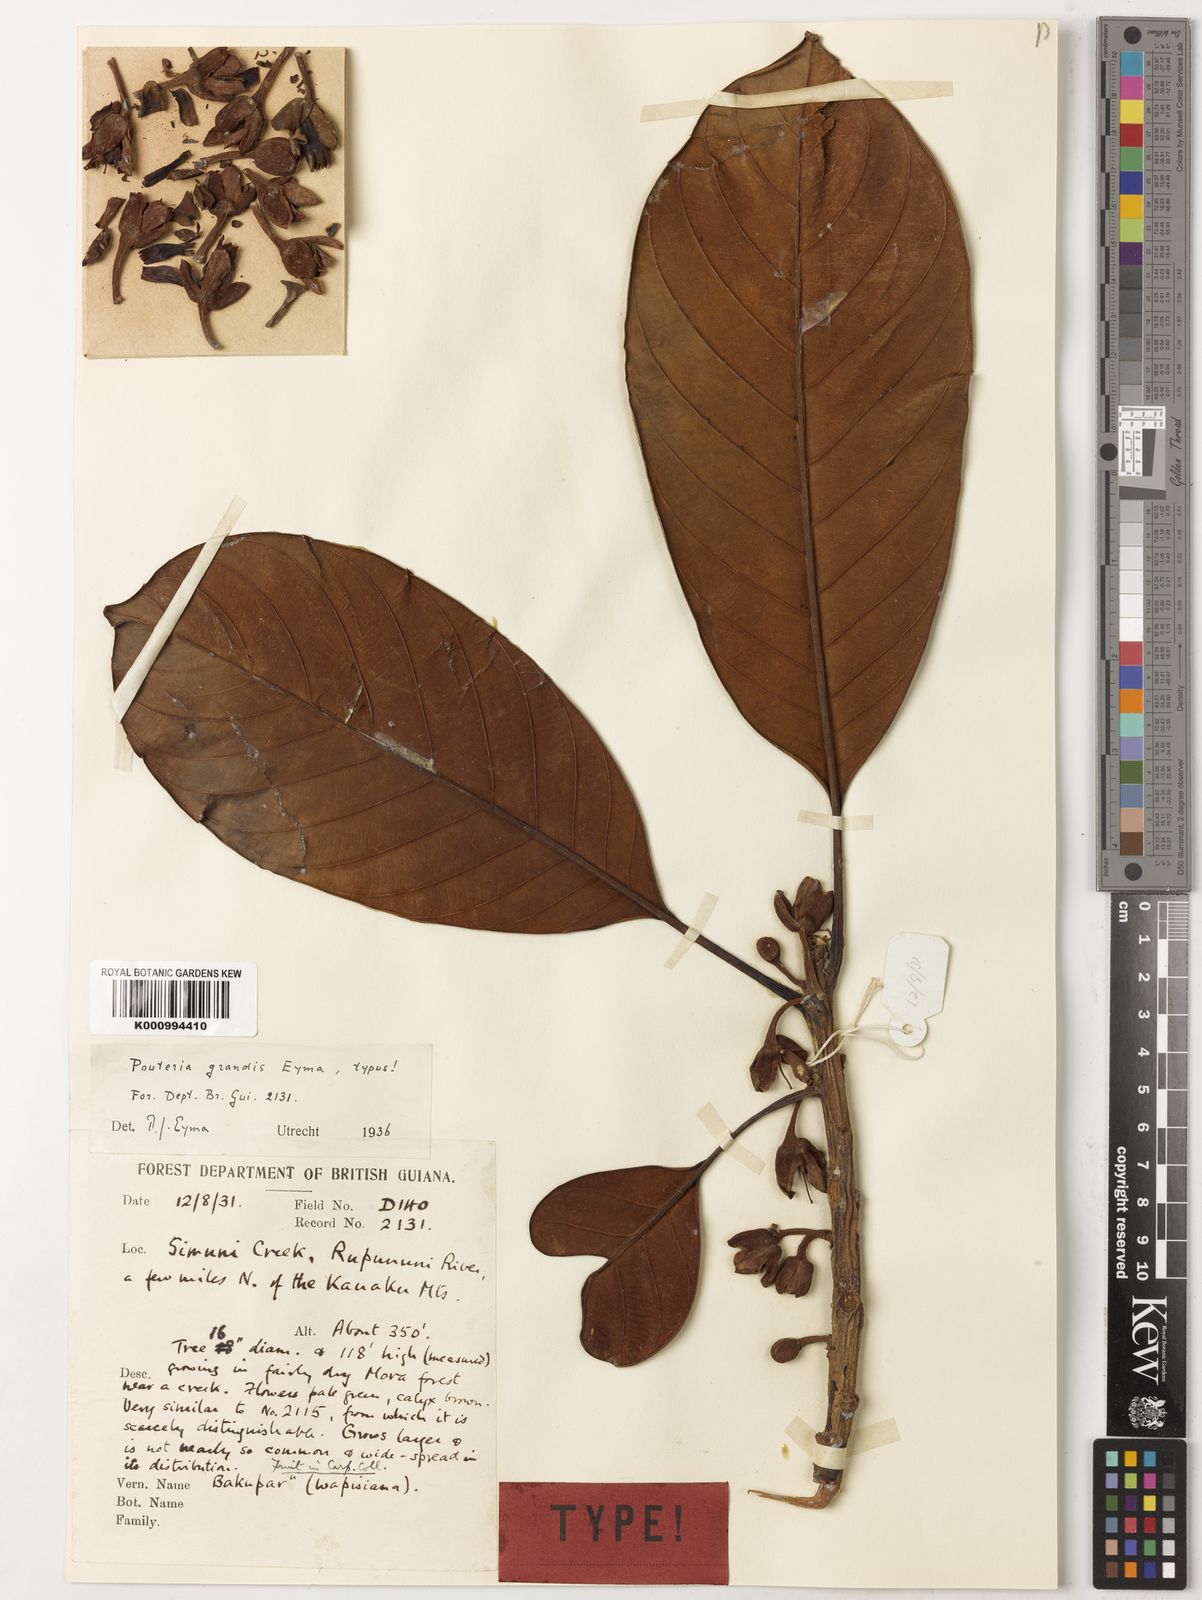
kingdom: Plantae
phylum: Tracheophyta
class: Magnoliopsida
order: Ericales
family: Sapotaceae
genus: Pouteria
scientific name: Pouteria grandis
